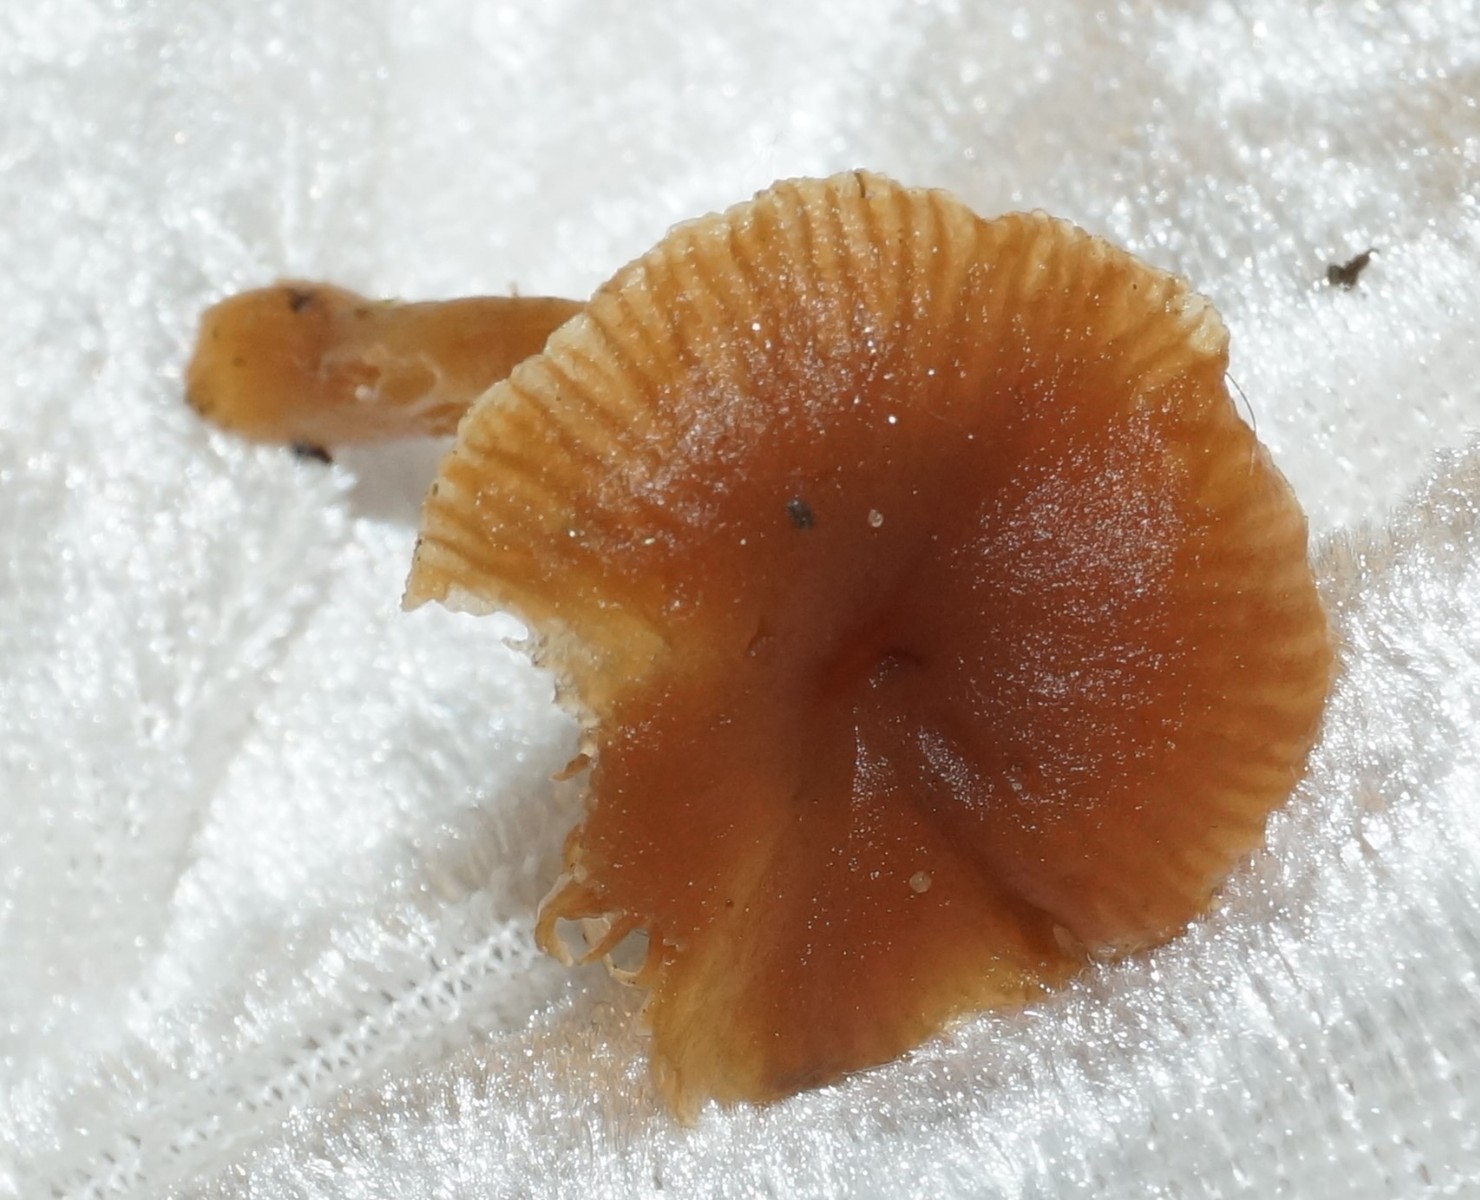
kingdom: Fungi
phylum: Basidiomycota
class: Agaricomycetes
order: Agaricales
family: Tubariaceae
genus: Tubaria
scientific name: Tubaria furfuracea
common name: kliddet fnughat
